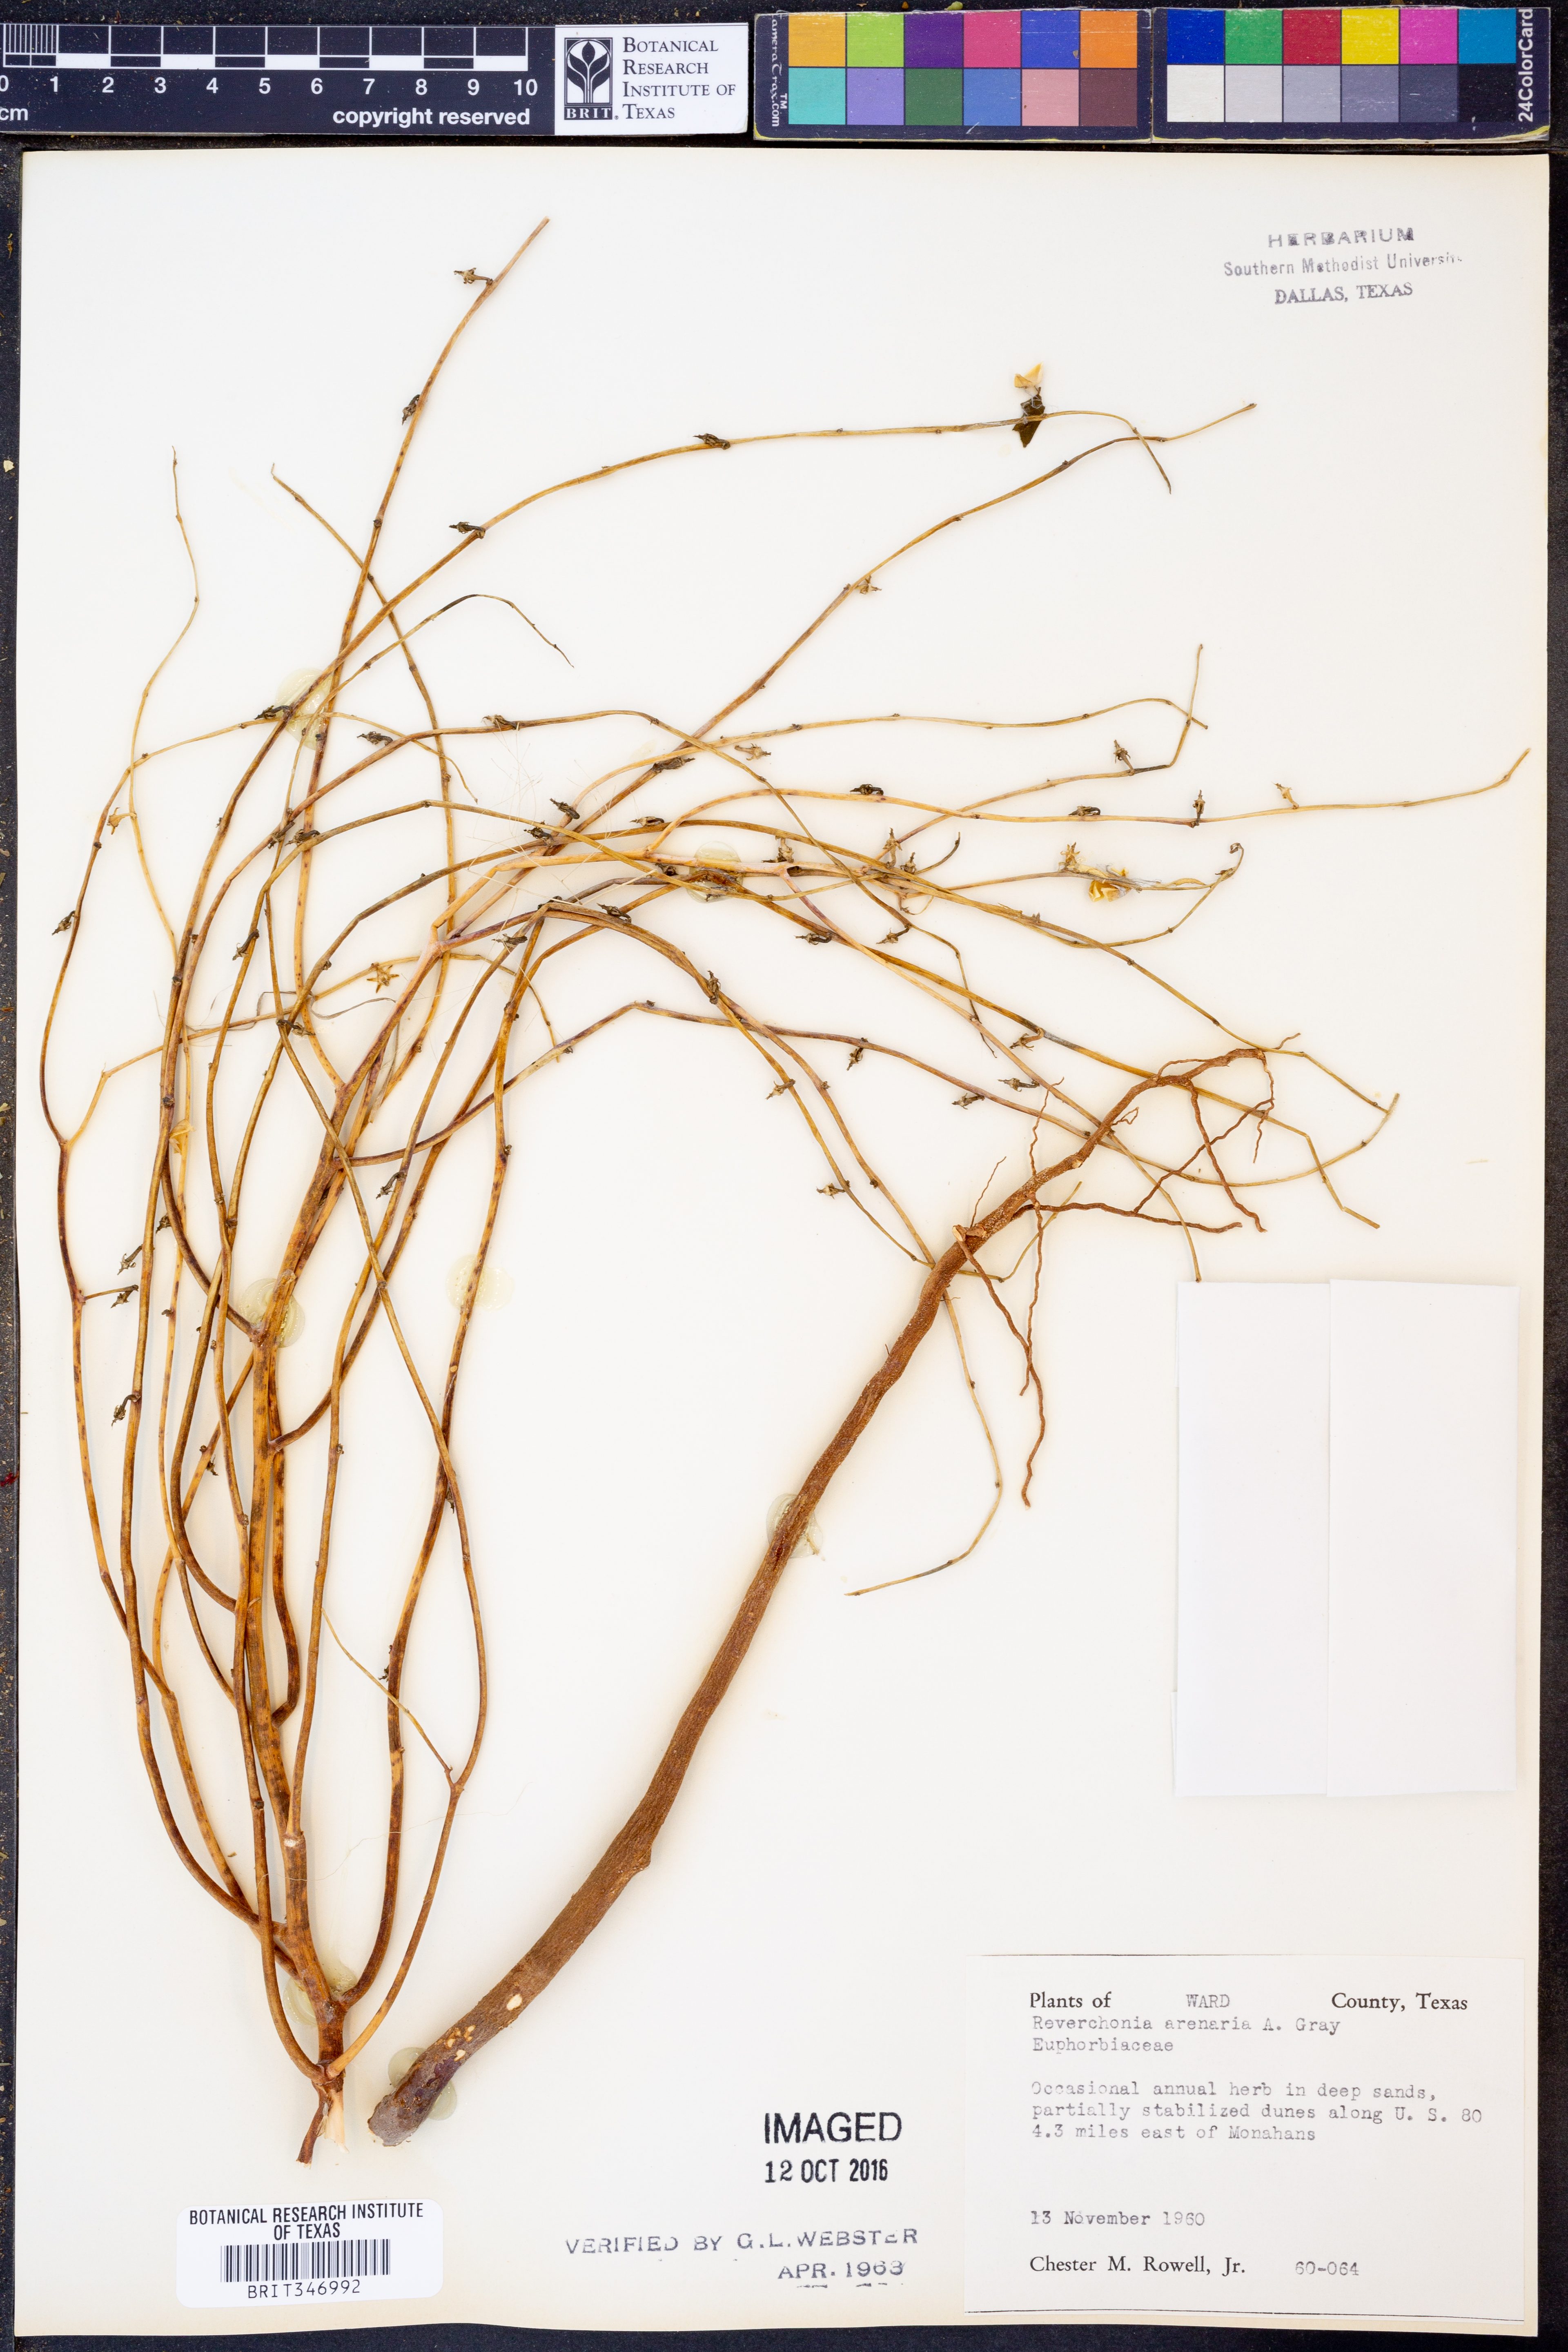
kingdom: Plantae
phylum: Tracheophyta
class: Magnoliopsida
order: Malpighiales
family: Phyllanthaceae
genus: Phyllanthus
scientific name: Phyllanthus warnockii
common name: Sand reverchonia
